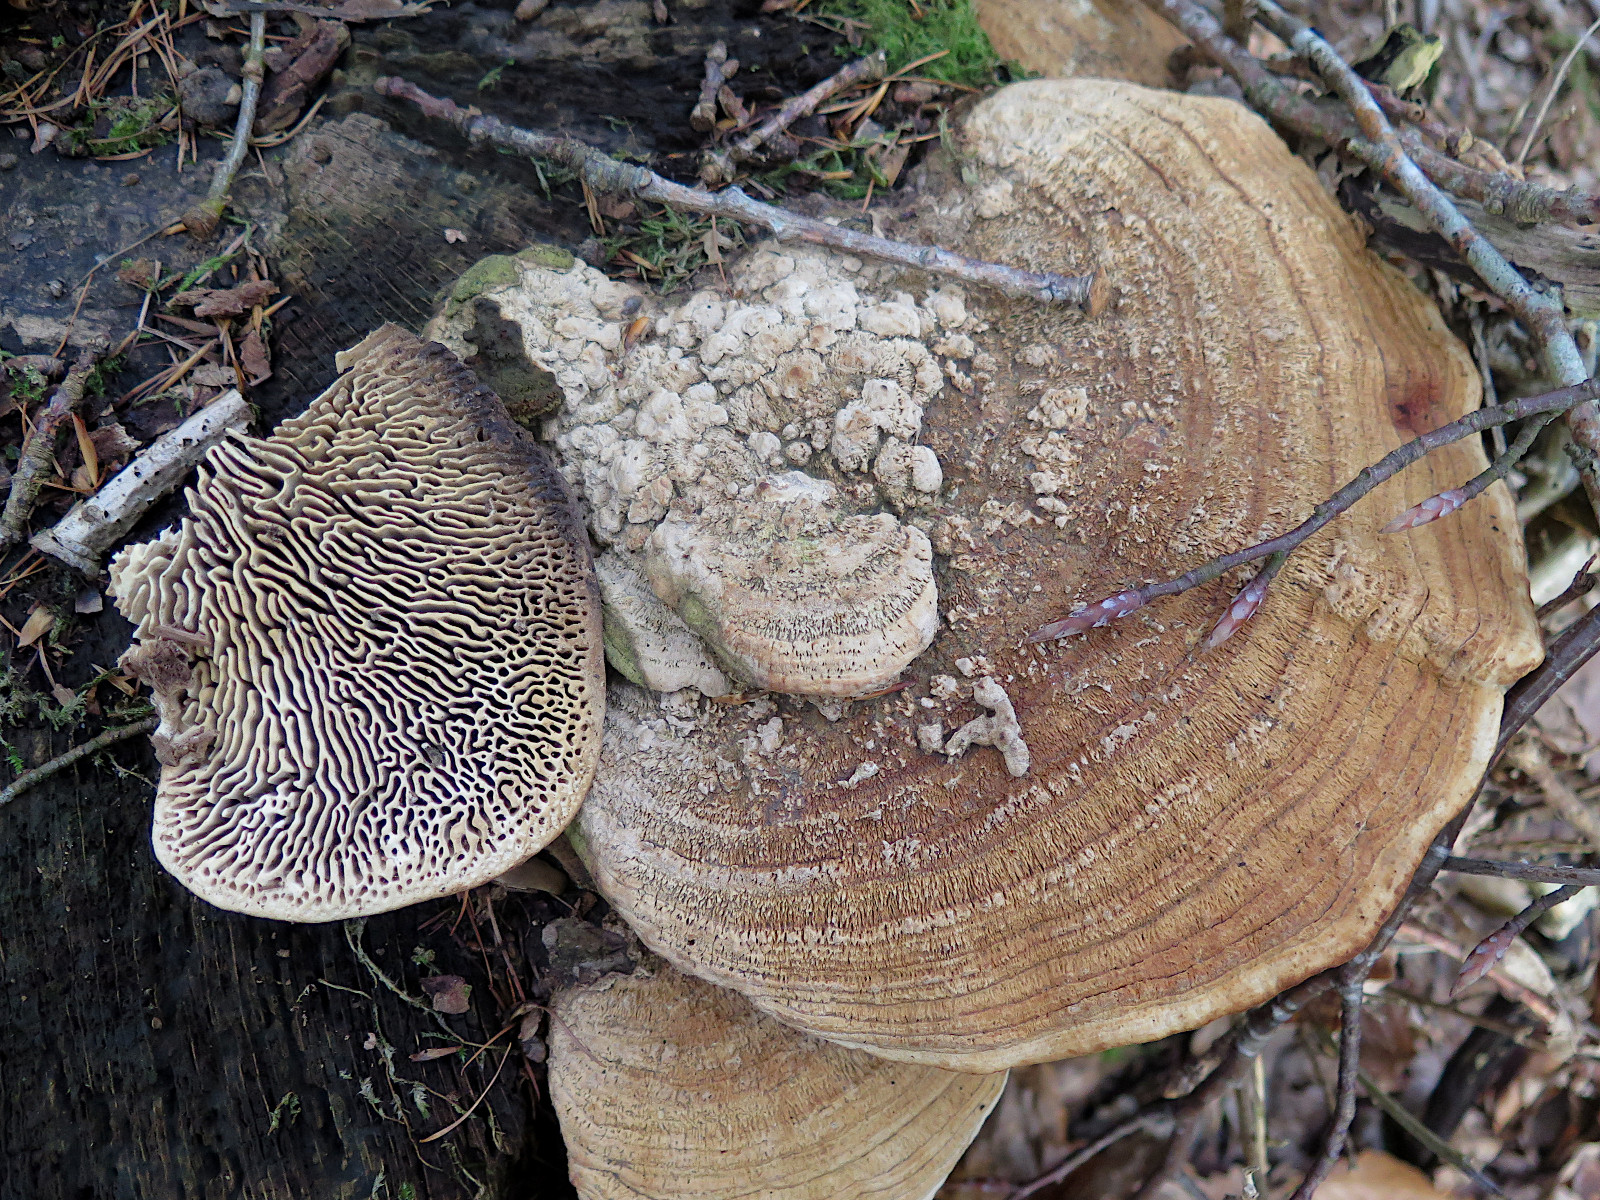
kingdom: Fungi
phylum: Basidiomycota
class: Agaricomycetes
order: Polyporales
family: Fomitopsidaceae
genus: Daedalea
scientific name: Daedalea quercina
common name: ege-labyrintsvamp
